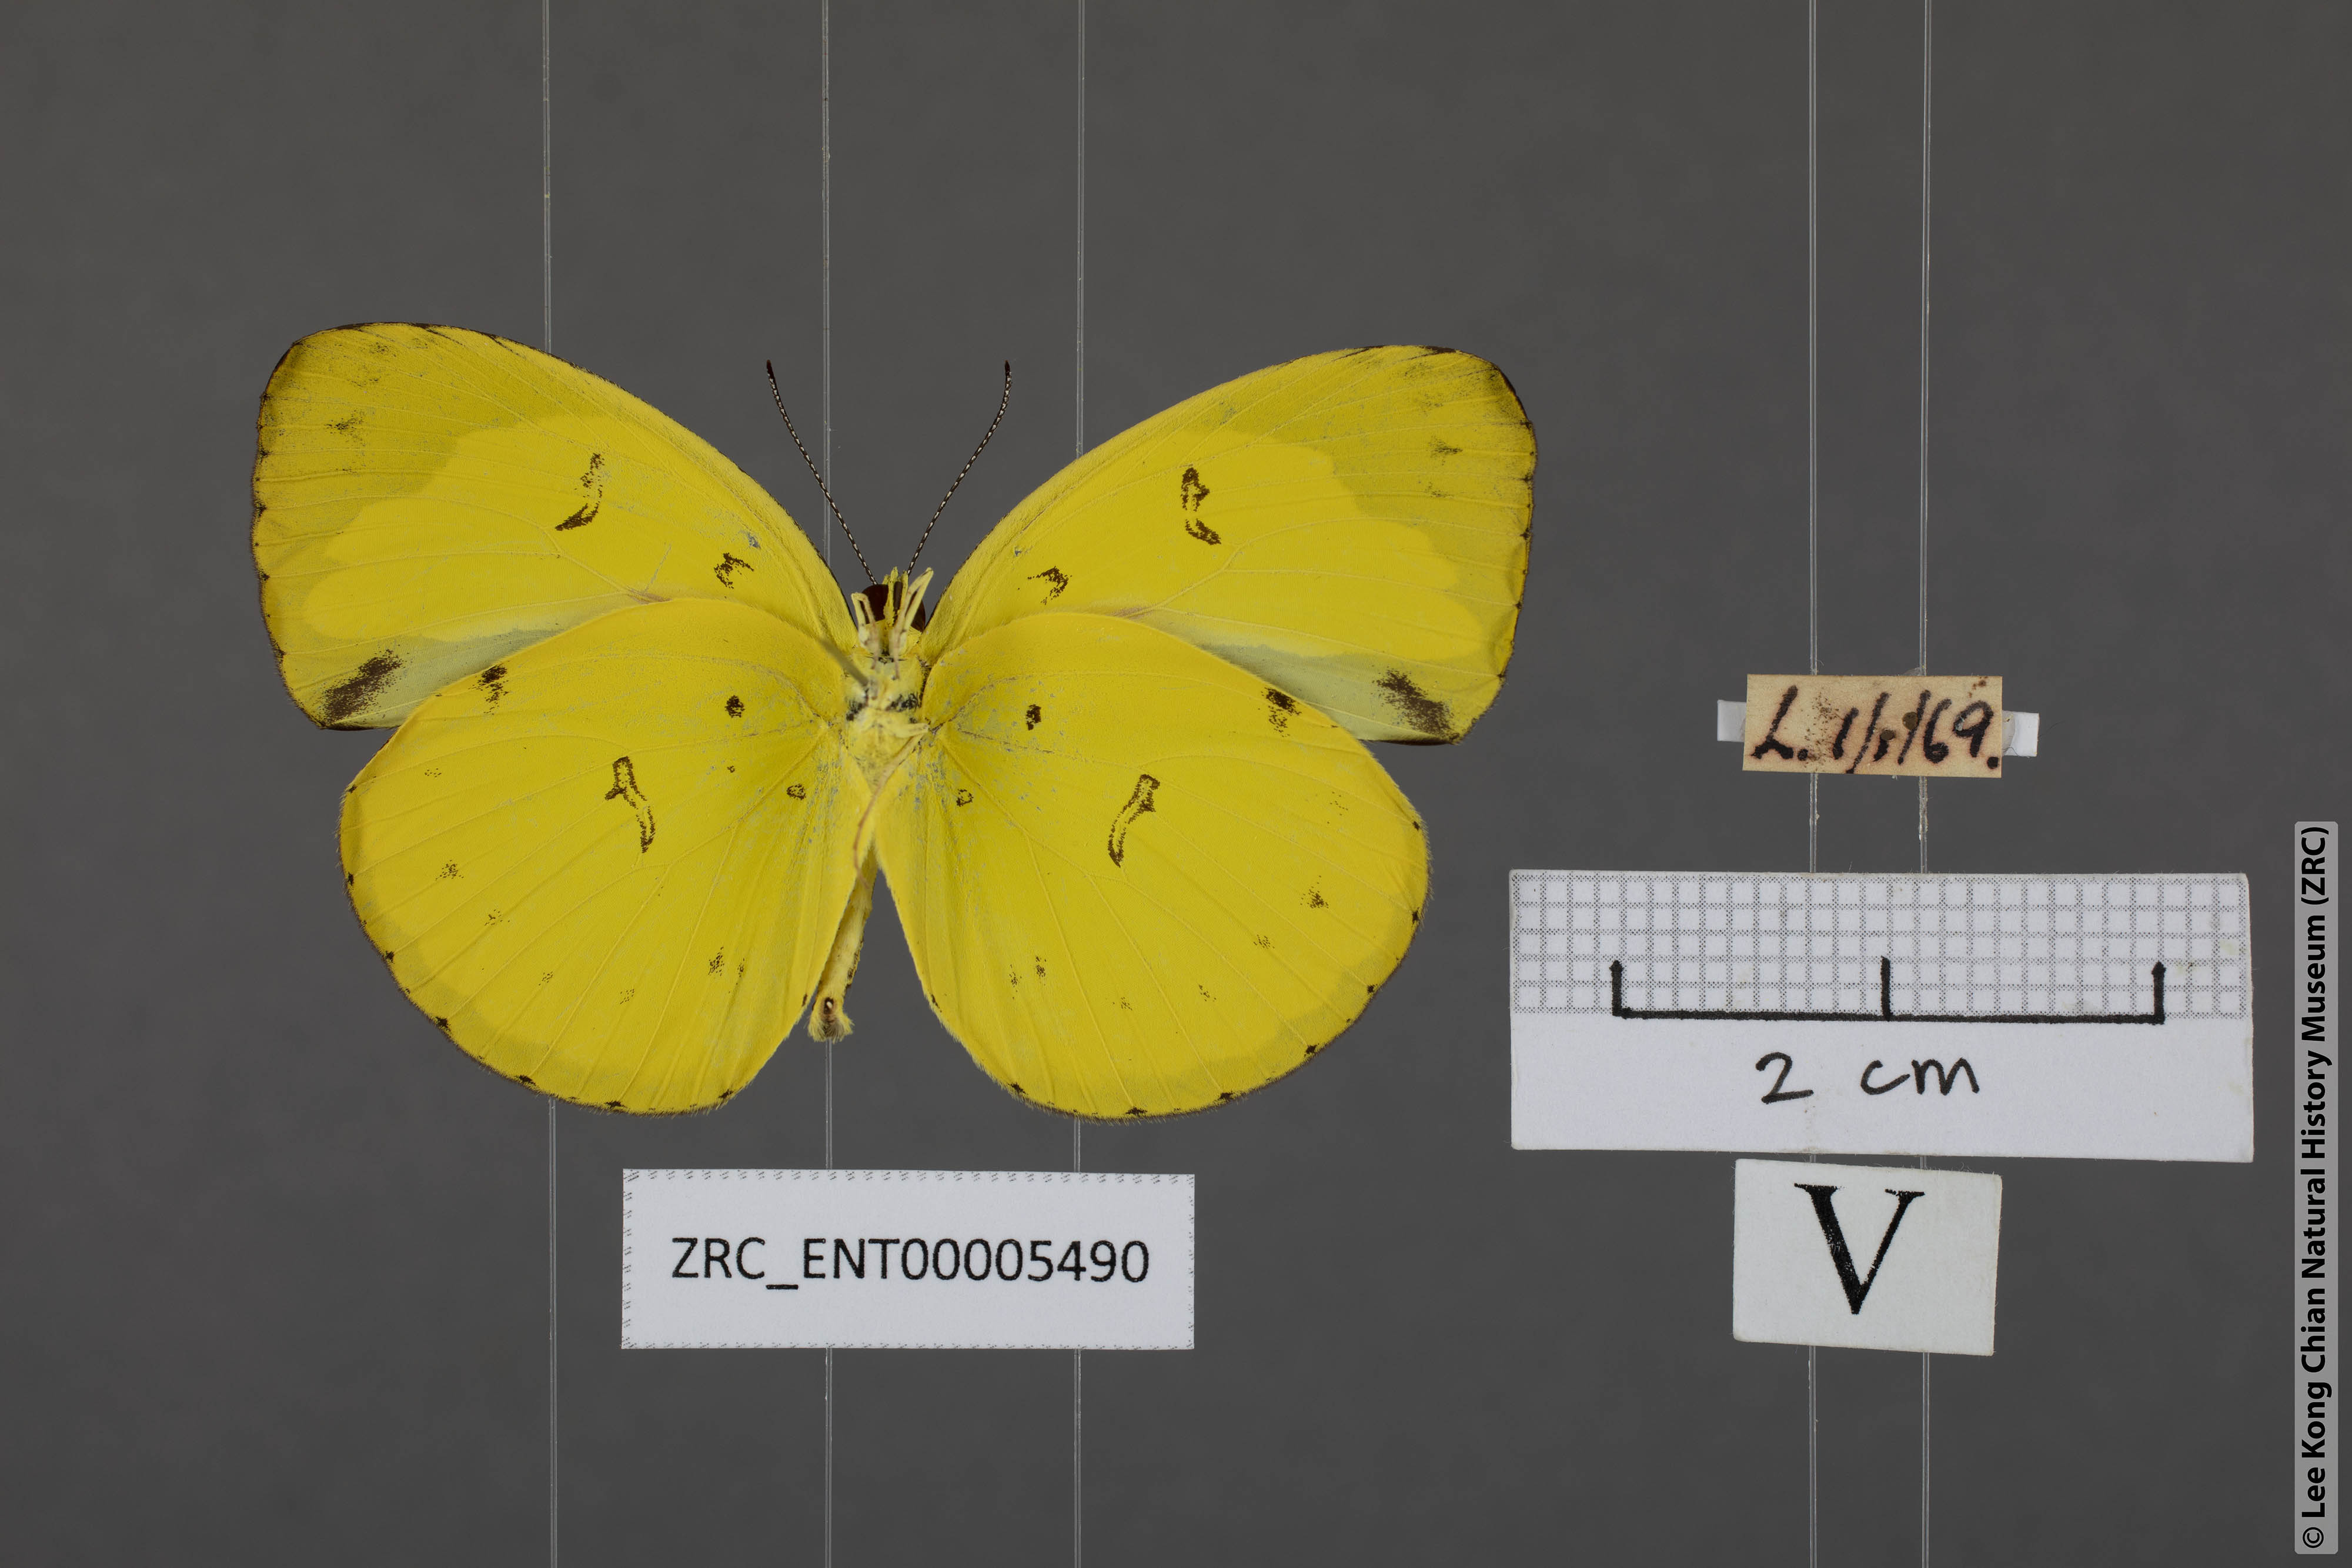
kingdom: Animalia
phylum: Arthropoda
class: Insecta
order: Lepidoptera
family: Pieridae
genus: Eurema
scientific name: Eurema nicevillei
